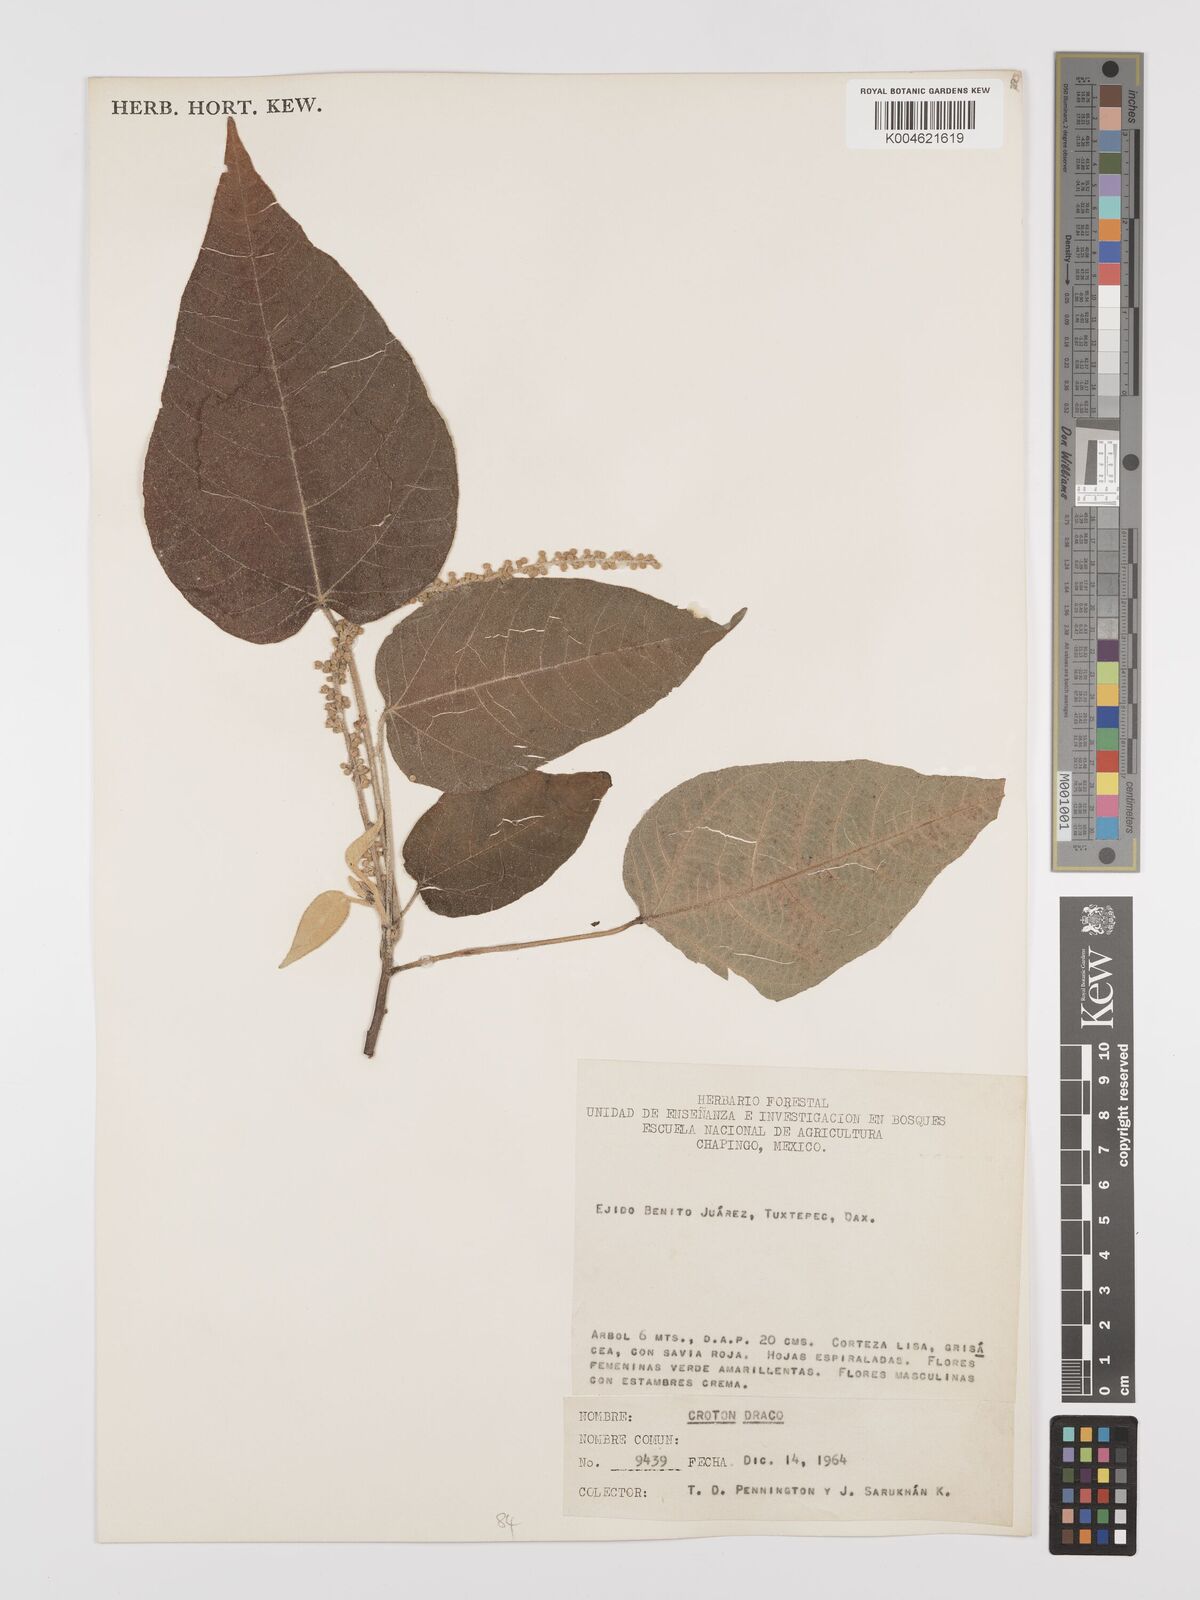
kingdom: Plantae
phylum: Tracheophyta
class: Magnoliopsida
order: Malpighiales
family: Euphorbiaceae
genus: Croton
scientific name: Croton draco
